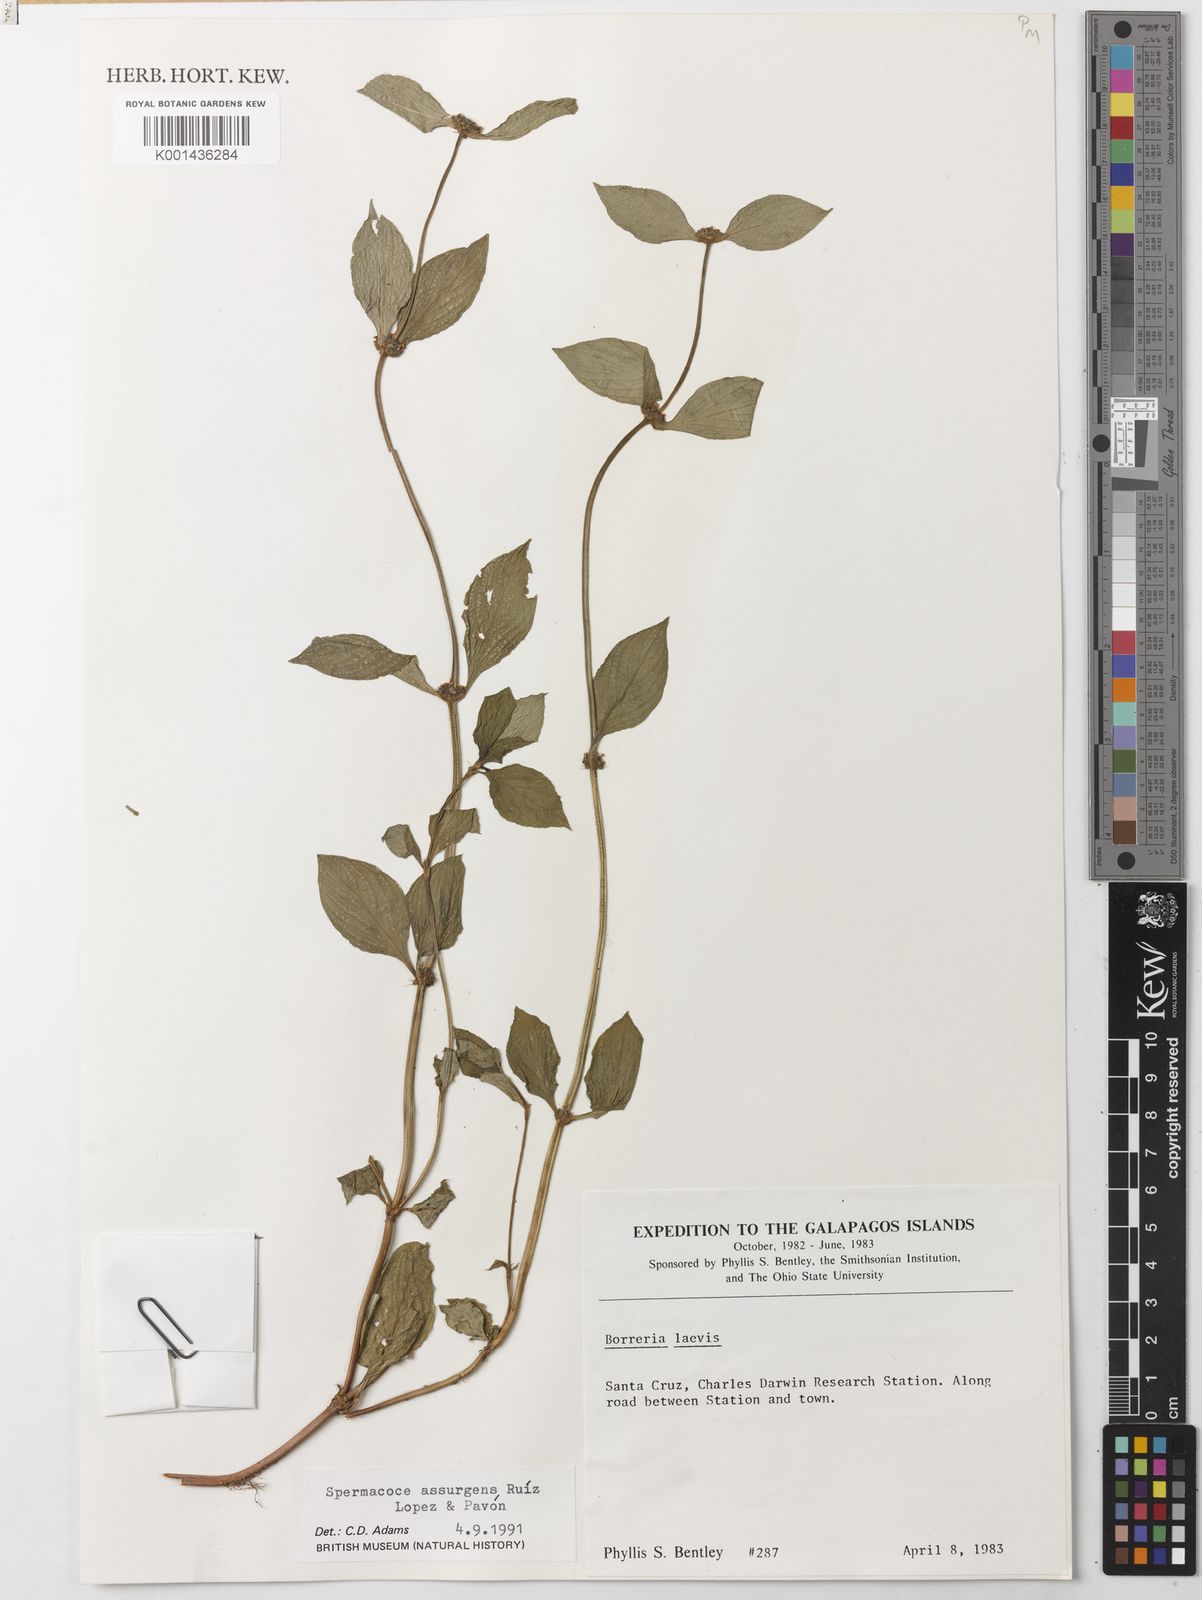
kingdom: Plantae
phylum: Tracheophyta
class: Magnoliopsida
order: Gentianales
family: Rubiaceae
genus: Spermacoce
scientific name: Spermacoce remota
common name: Woodland false buttonweed
